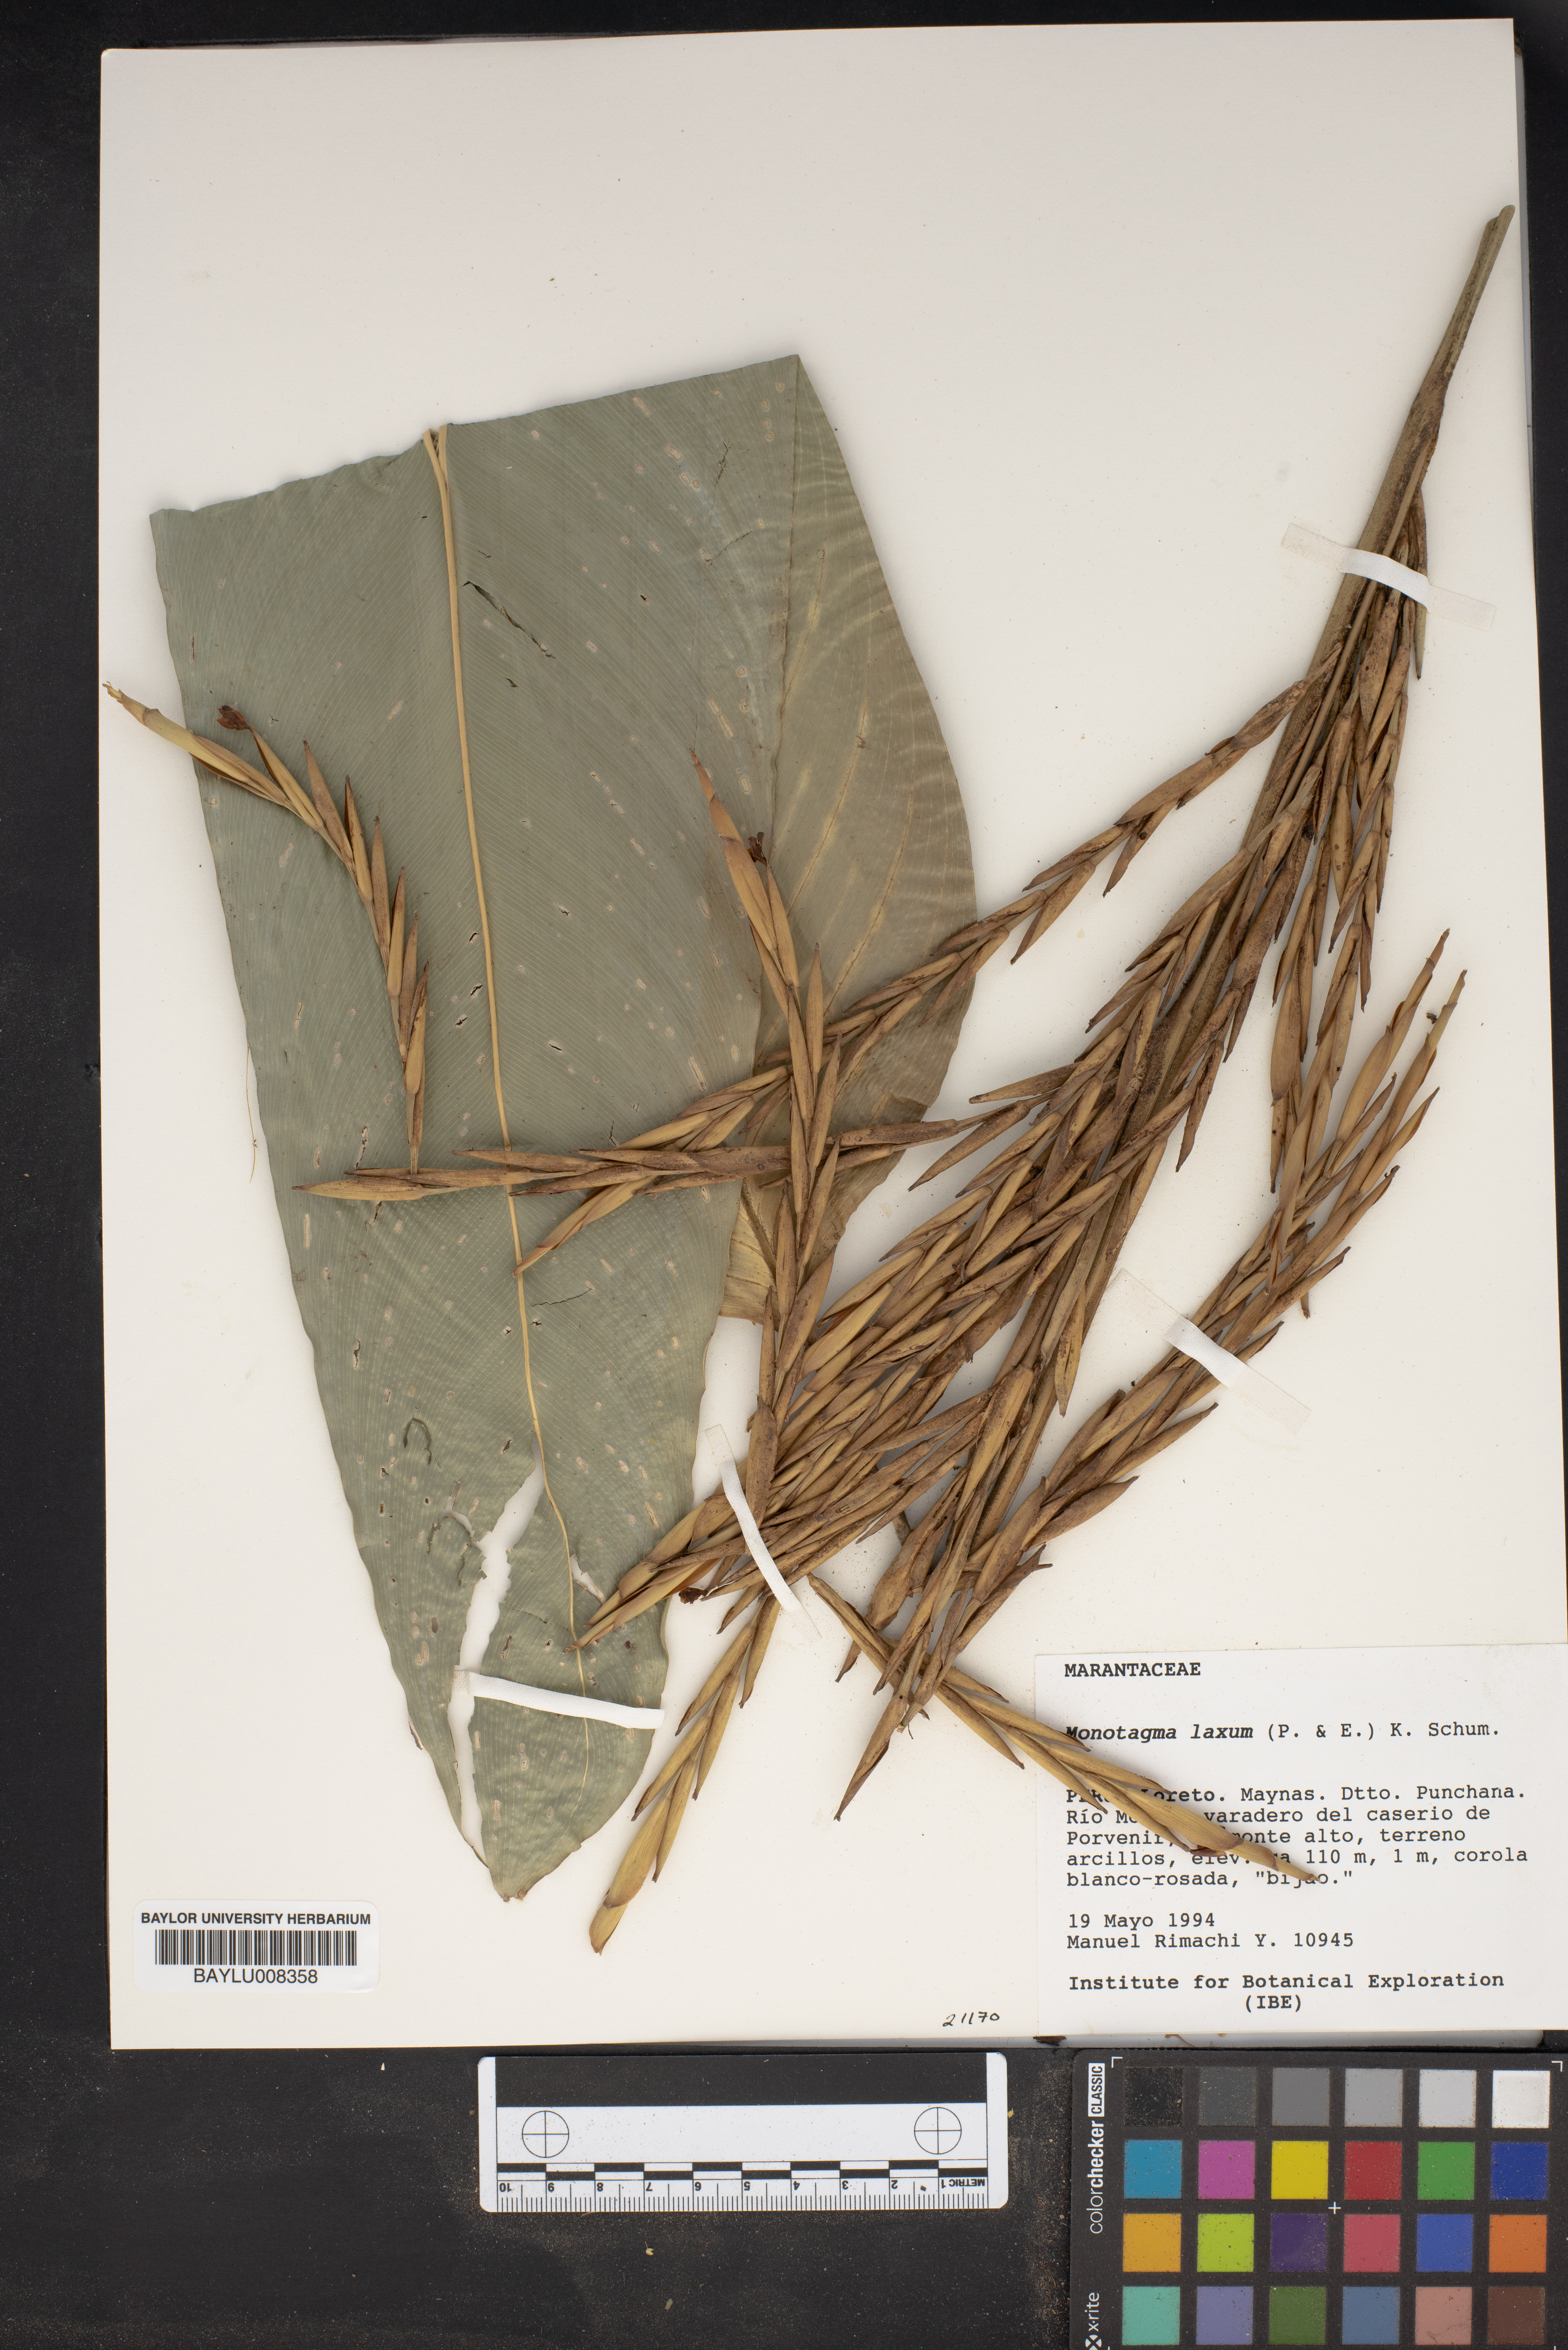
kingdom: Plantae
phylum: Tracheophyta
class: Liliopsida
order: Zingiberales
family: Marantaceae
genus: Monotagma
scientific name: Monotagma laxum
